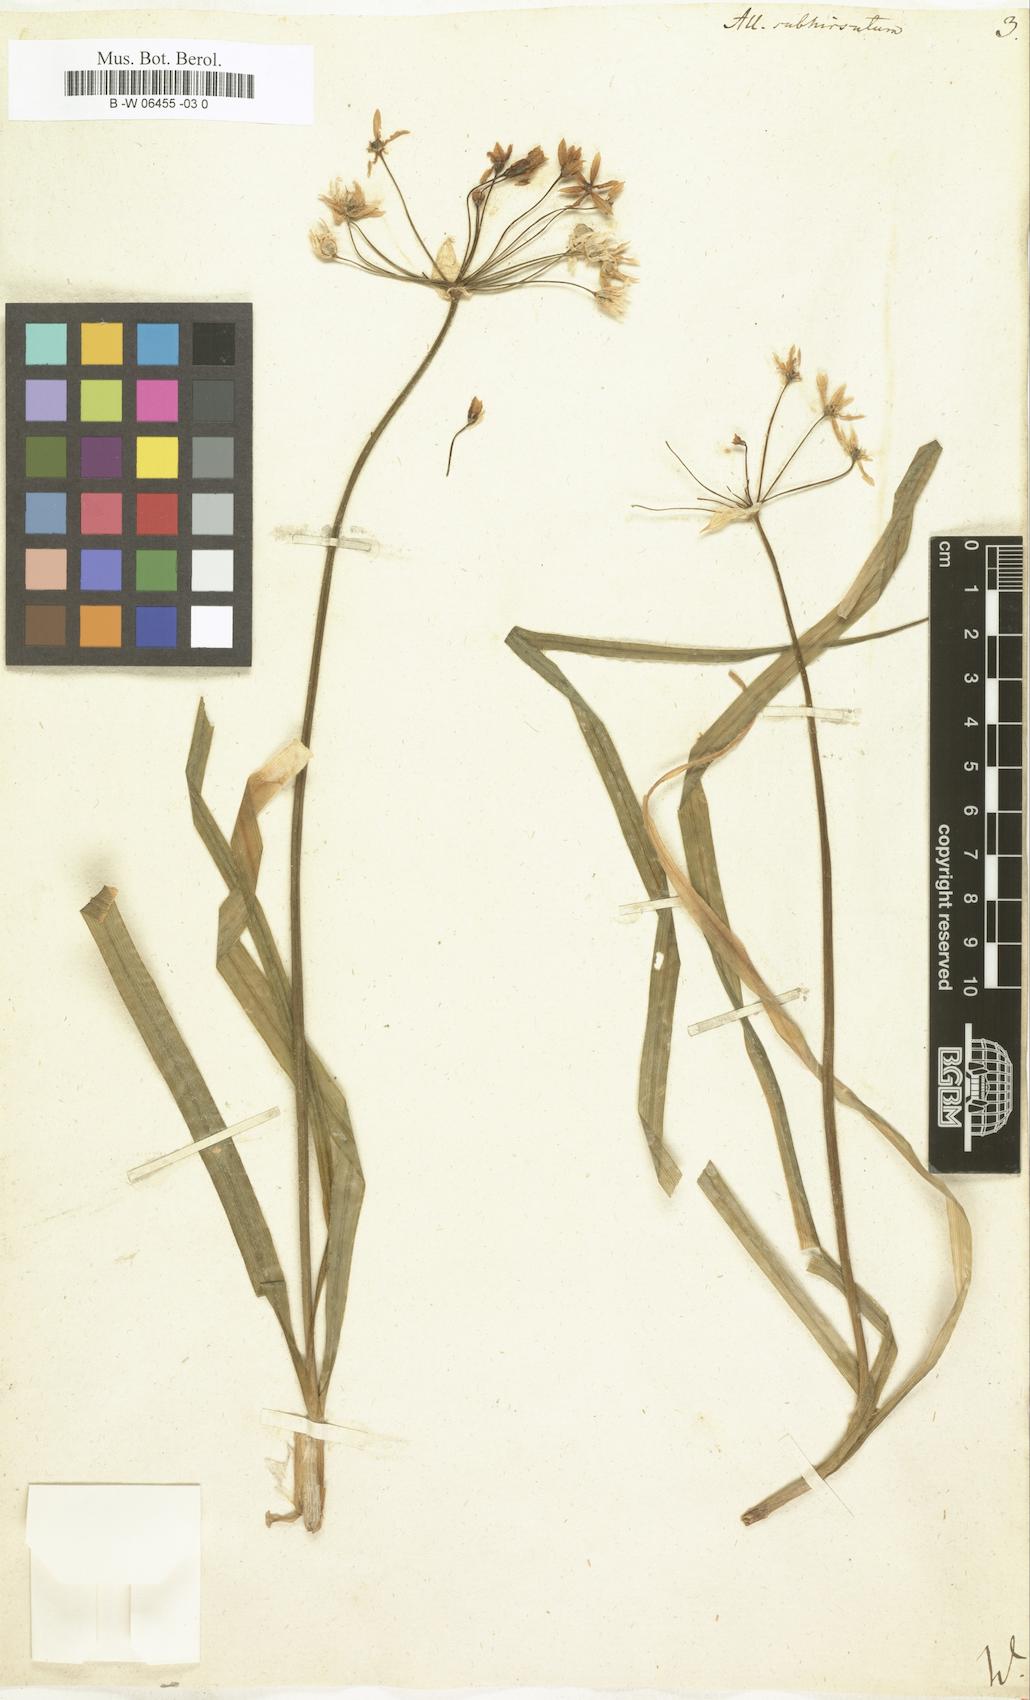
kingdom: Plantae
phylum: Tracheophyta
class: Liliopsida
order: Asparagales
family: Amaryllidaceae
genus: Allium
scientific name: Allium subhirsutum
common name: Hairy garlic
